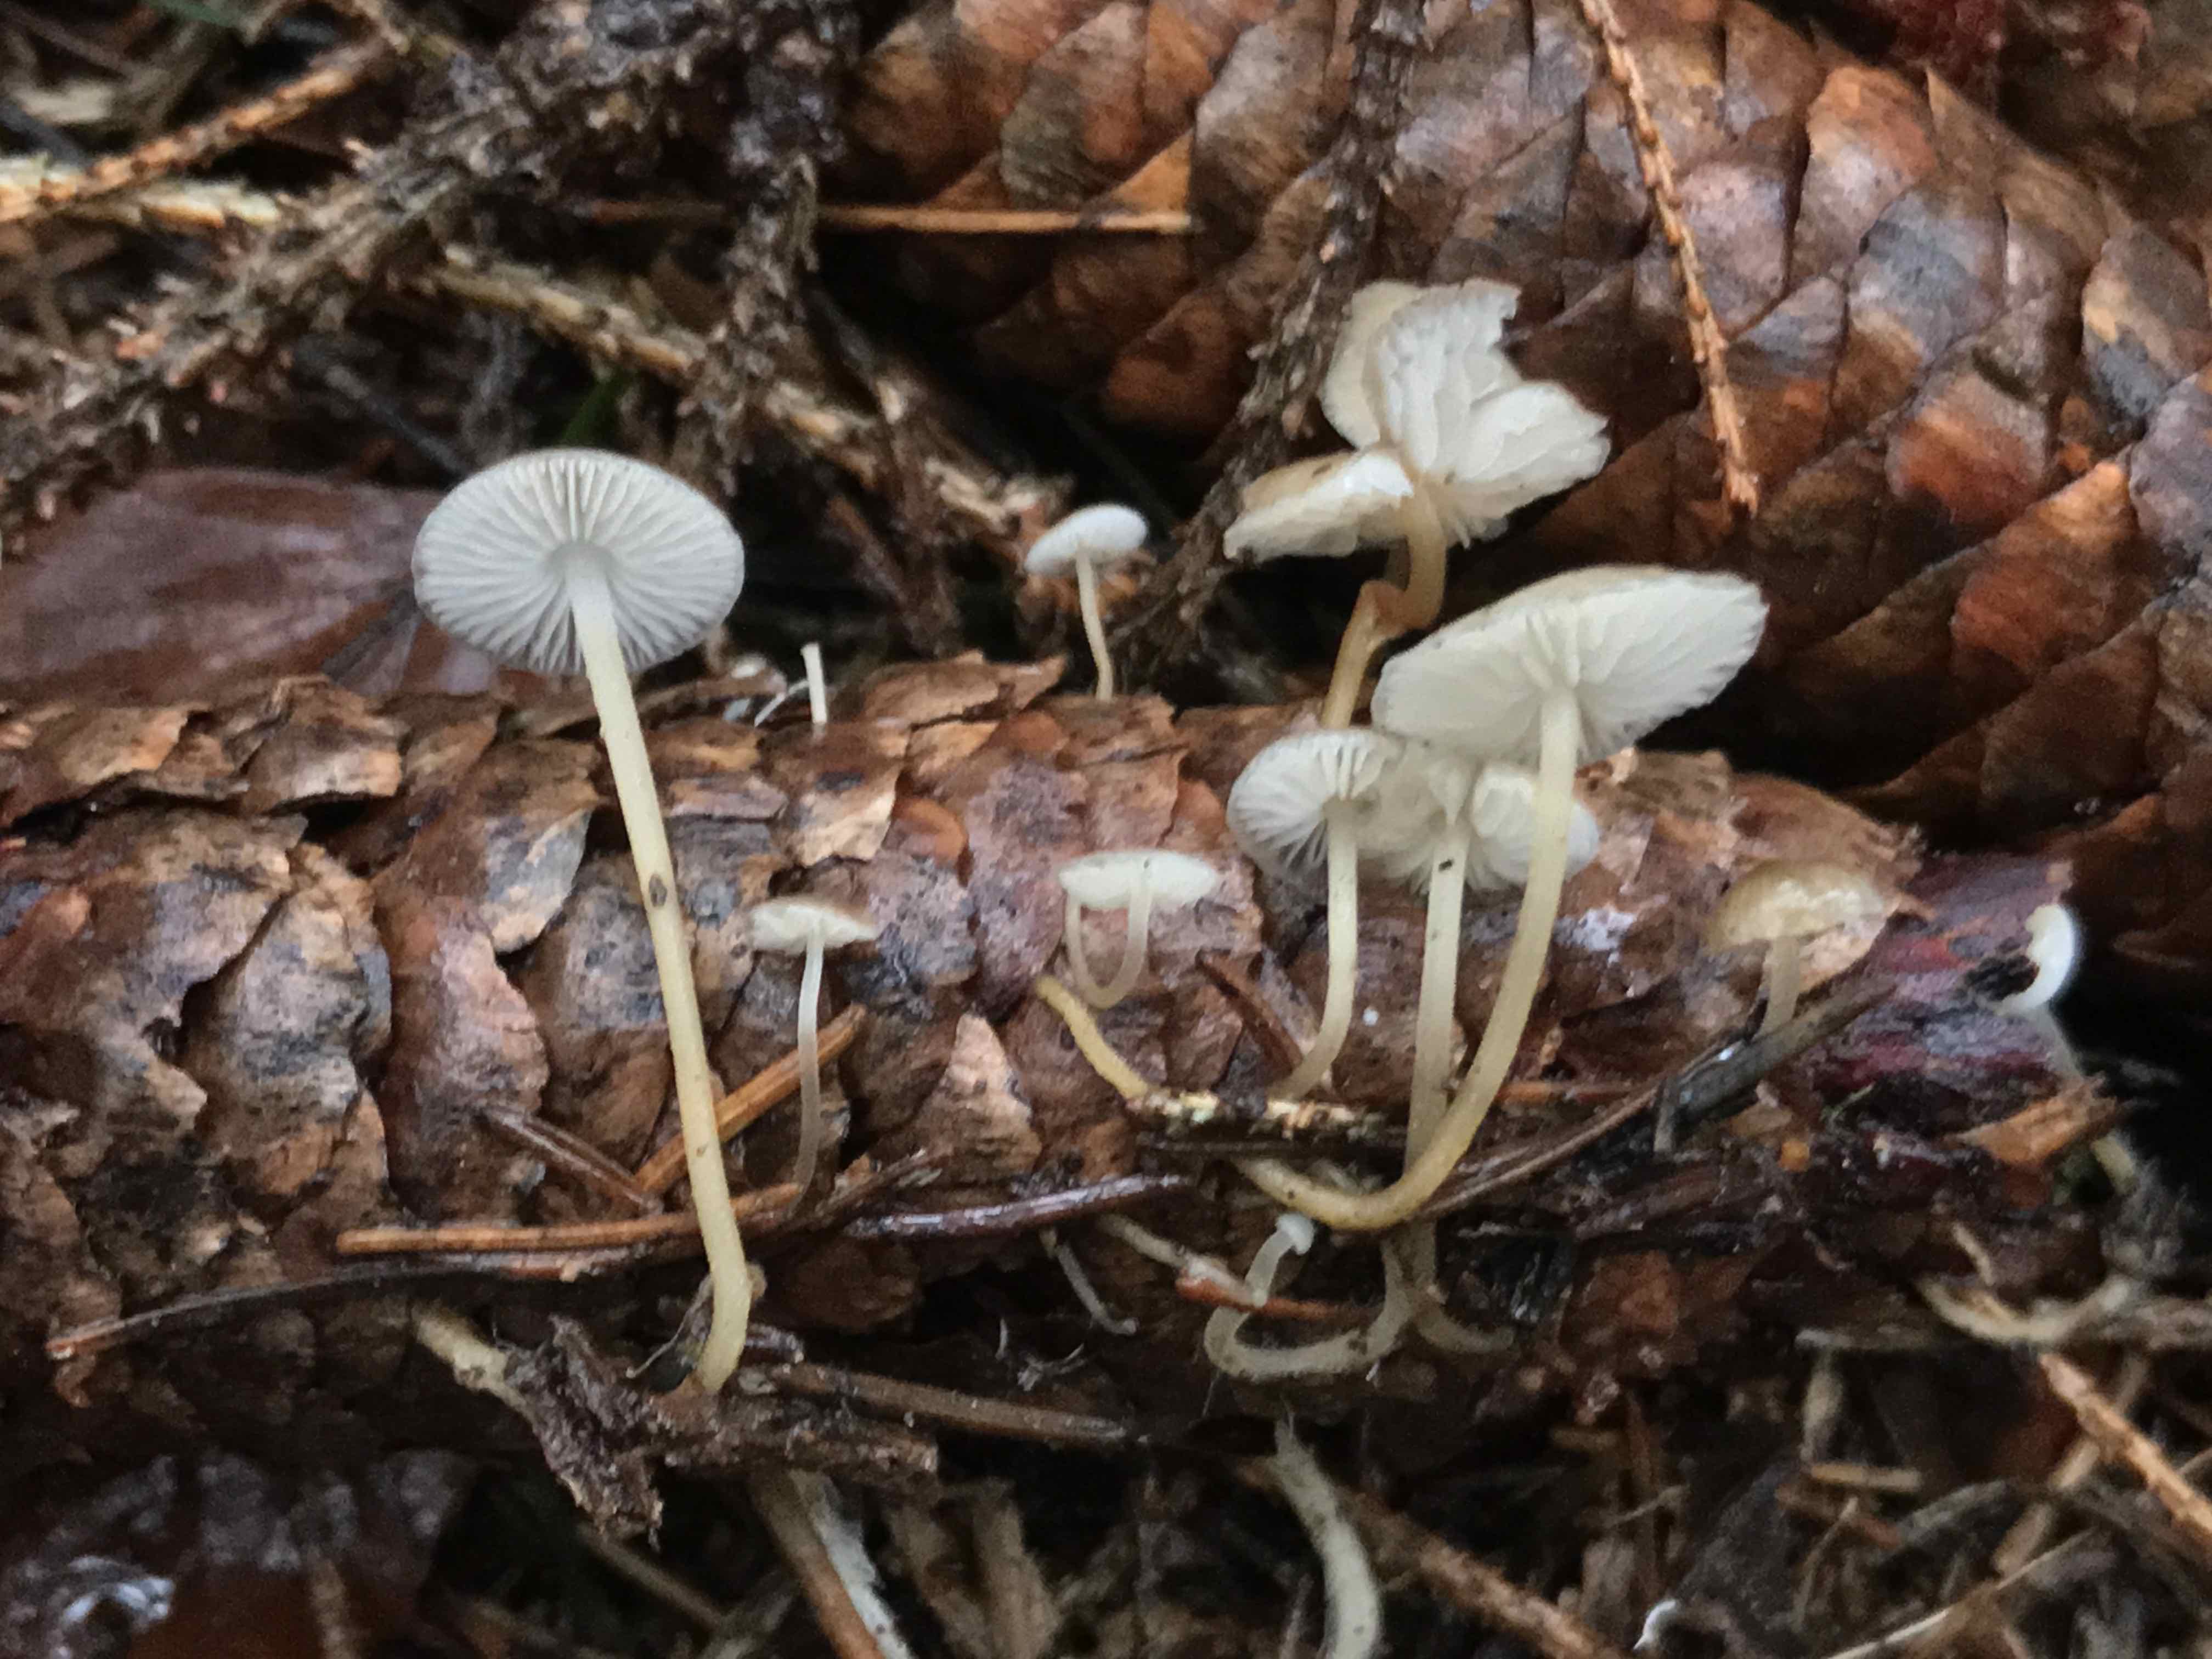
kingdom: Fungi
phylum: Basidiomycota
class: Agaricomycetes
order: Agaricales
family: Physalacriaceae
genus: Strobilurus
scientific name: Strobilurus esculentus
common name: gran-koglehat
